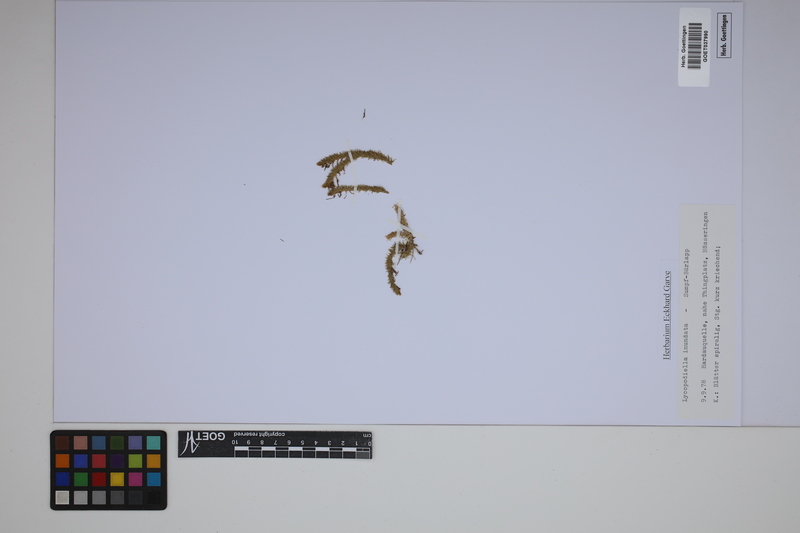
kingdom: Plantae
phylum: Tracheophyta
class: Lycopodiopsida
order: Lycopodiales
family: Lycopodiaceae
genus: Lycopodiella
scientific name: Lycopodiella inundata
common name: Marsh clubmoss
